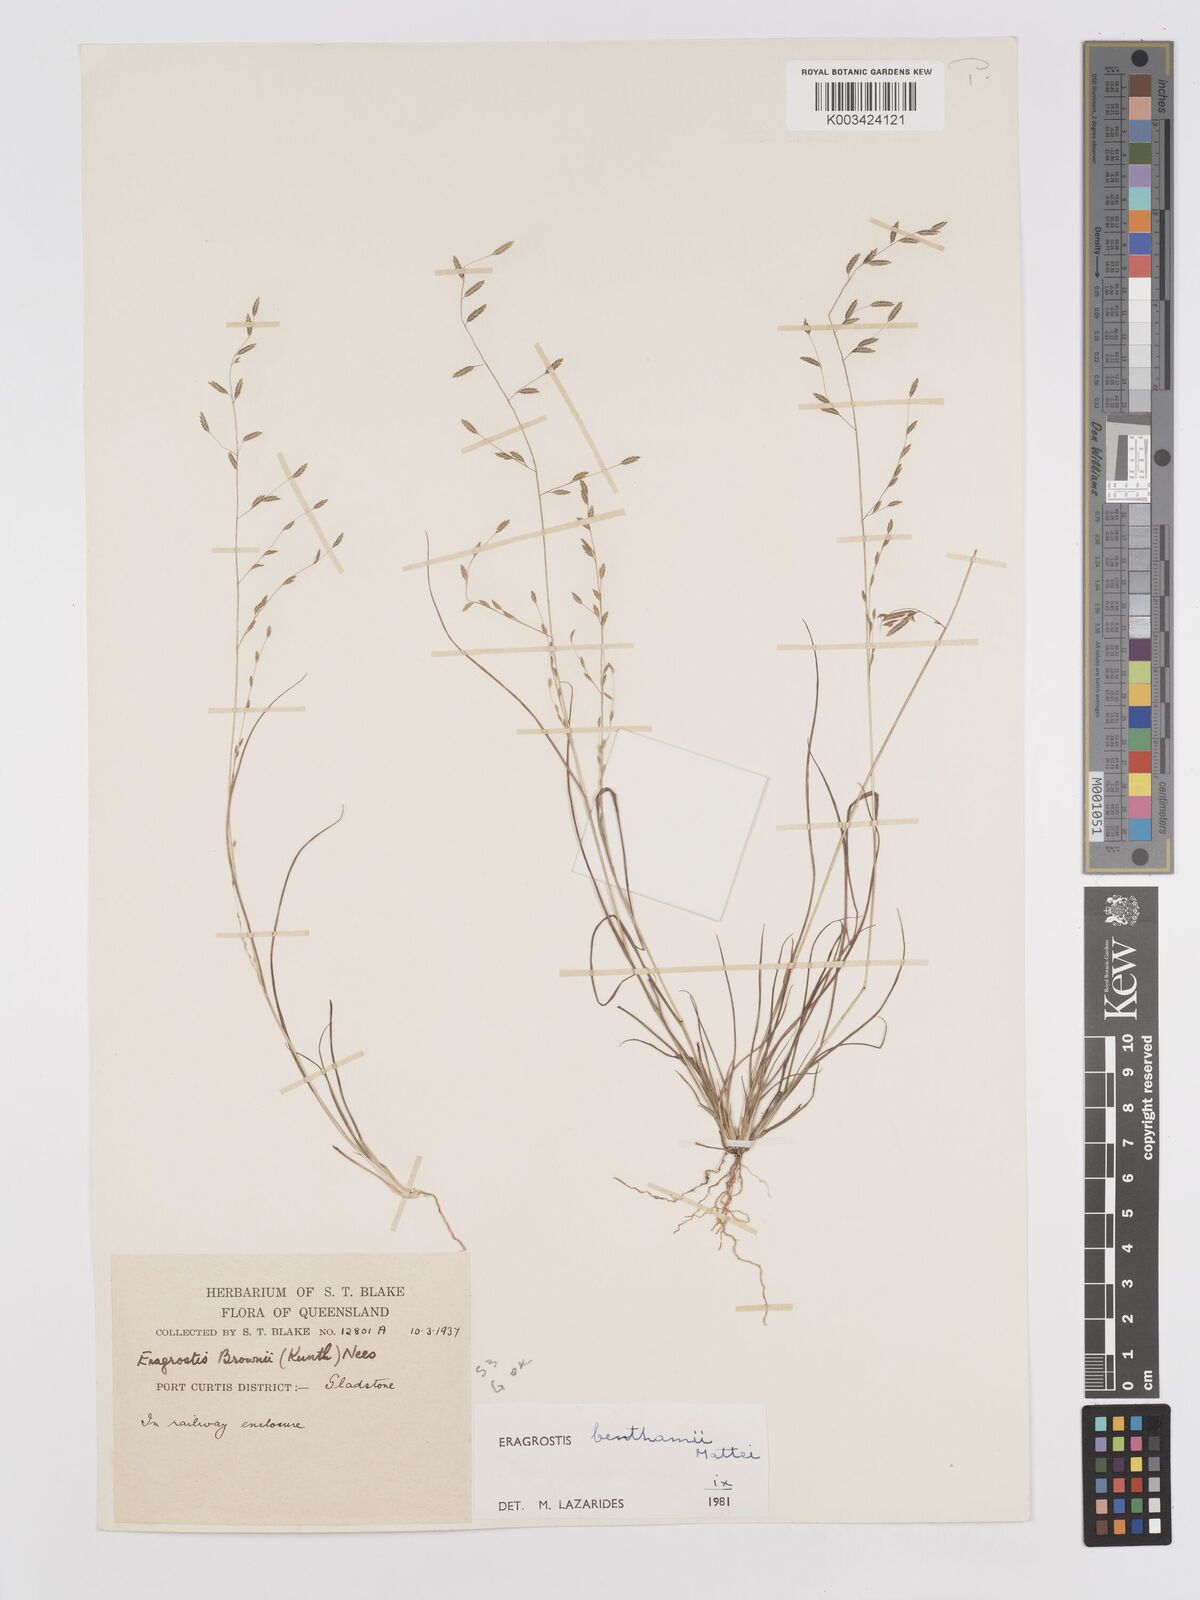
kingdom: Plantae
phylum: Tracheophyta
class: Liliopsida
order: Poales
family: Poaceae
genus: Eragrostis
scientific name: Eragrostis brownii
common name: Lovegrass
